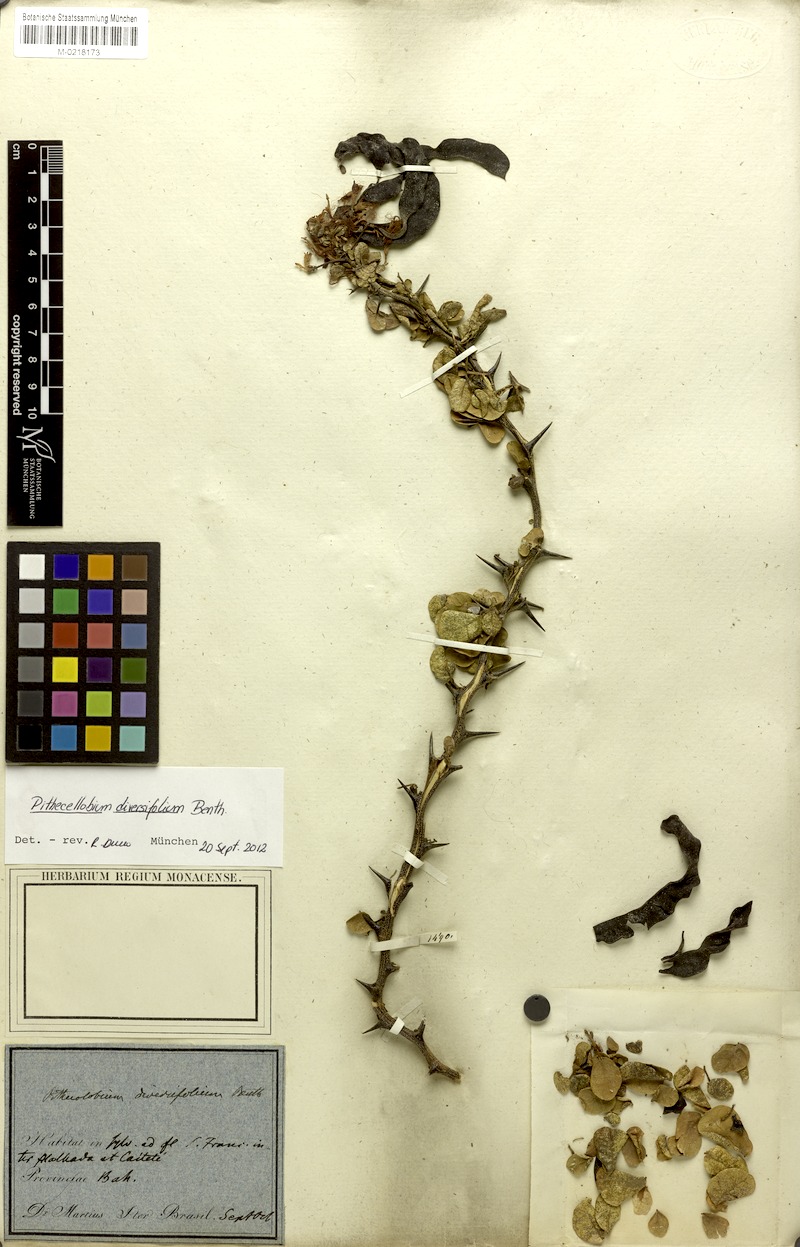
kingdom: Plantae
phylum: Tracheophyta
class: Magnoliopsida
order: Fabales
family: Fabaceae
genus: Pithecellobium
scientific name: Pithecellobium diversifolium
